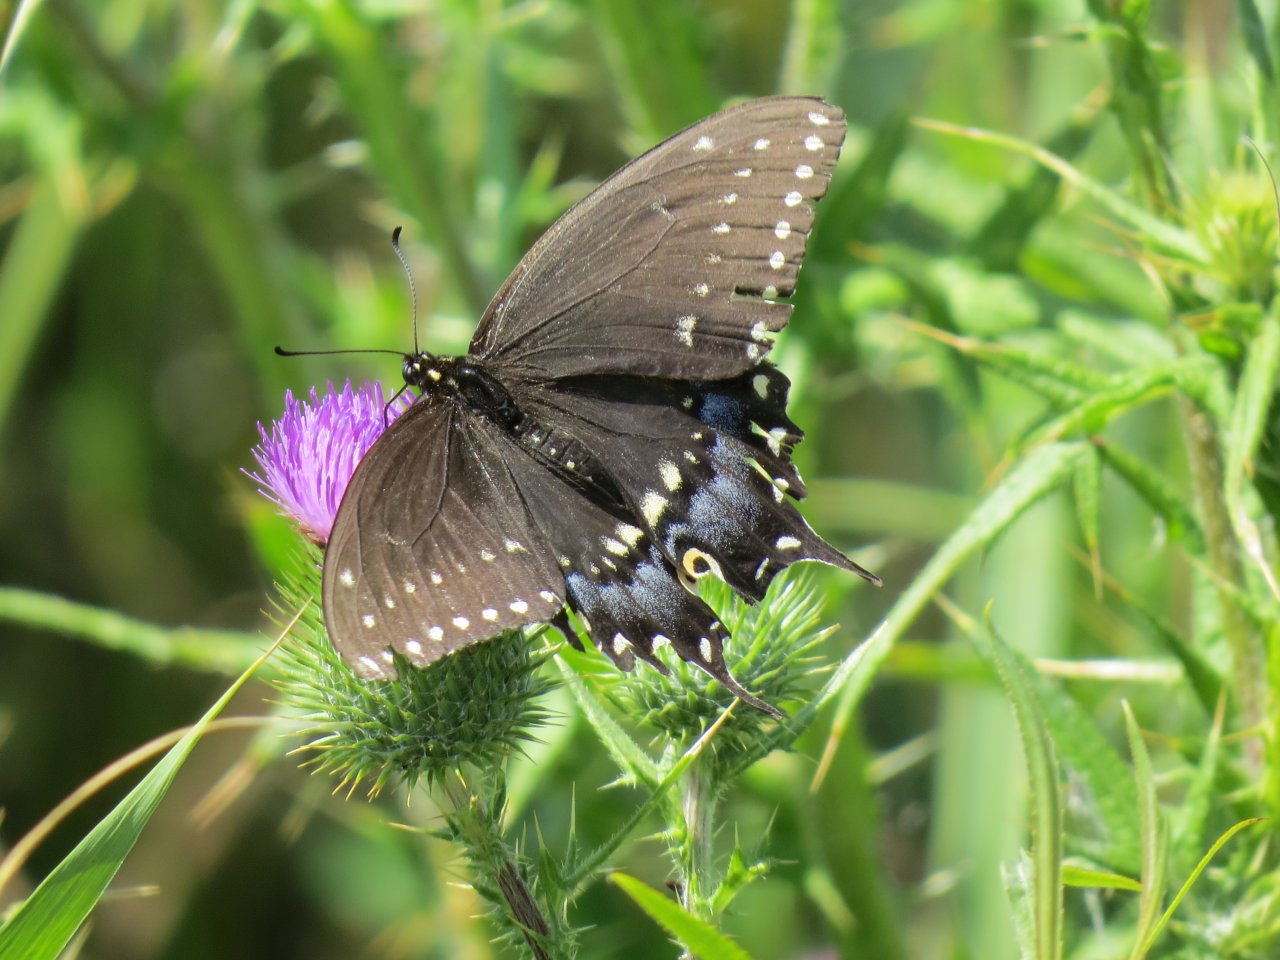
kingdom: Animalia
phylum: Arthropoda
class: Insecta
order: Lepidoptera
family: Papilionidae
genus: Papilio
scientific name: Papilio polyxenes
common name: Black Swallowtail
